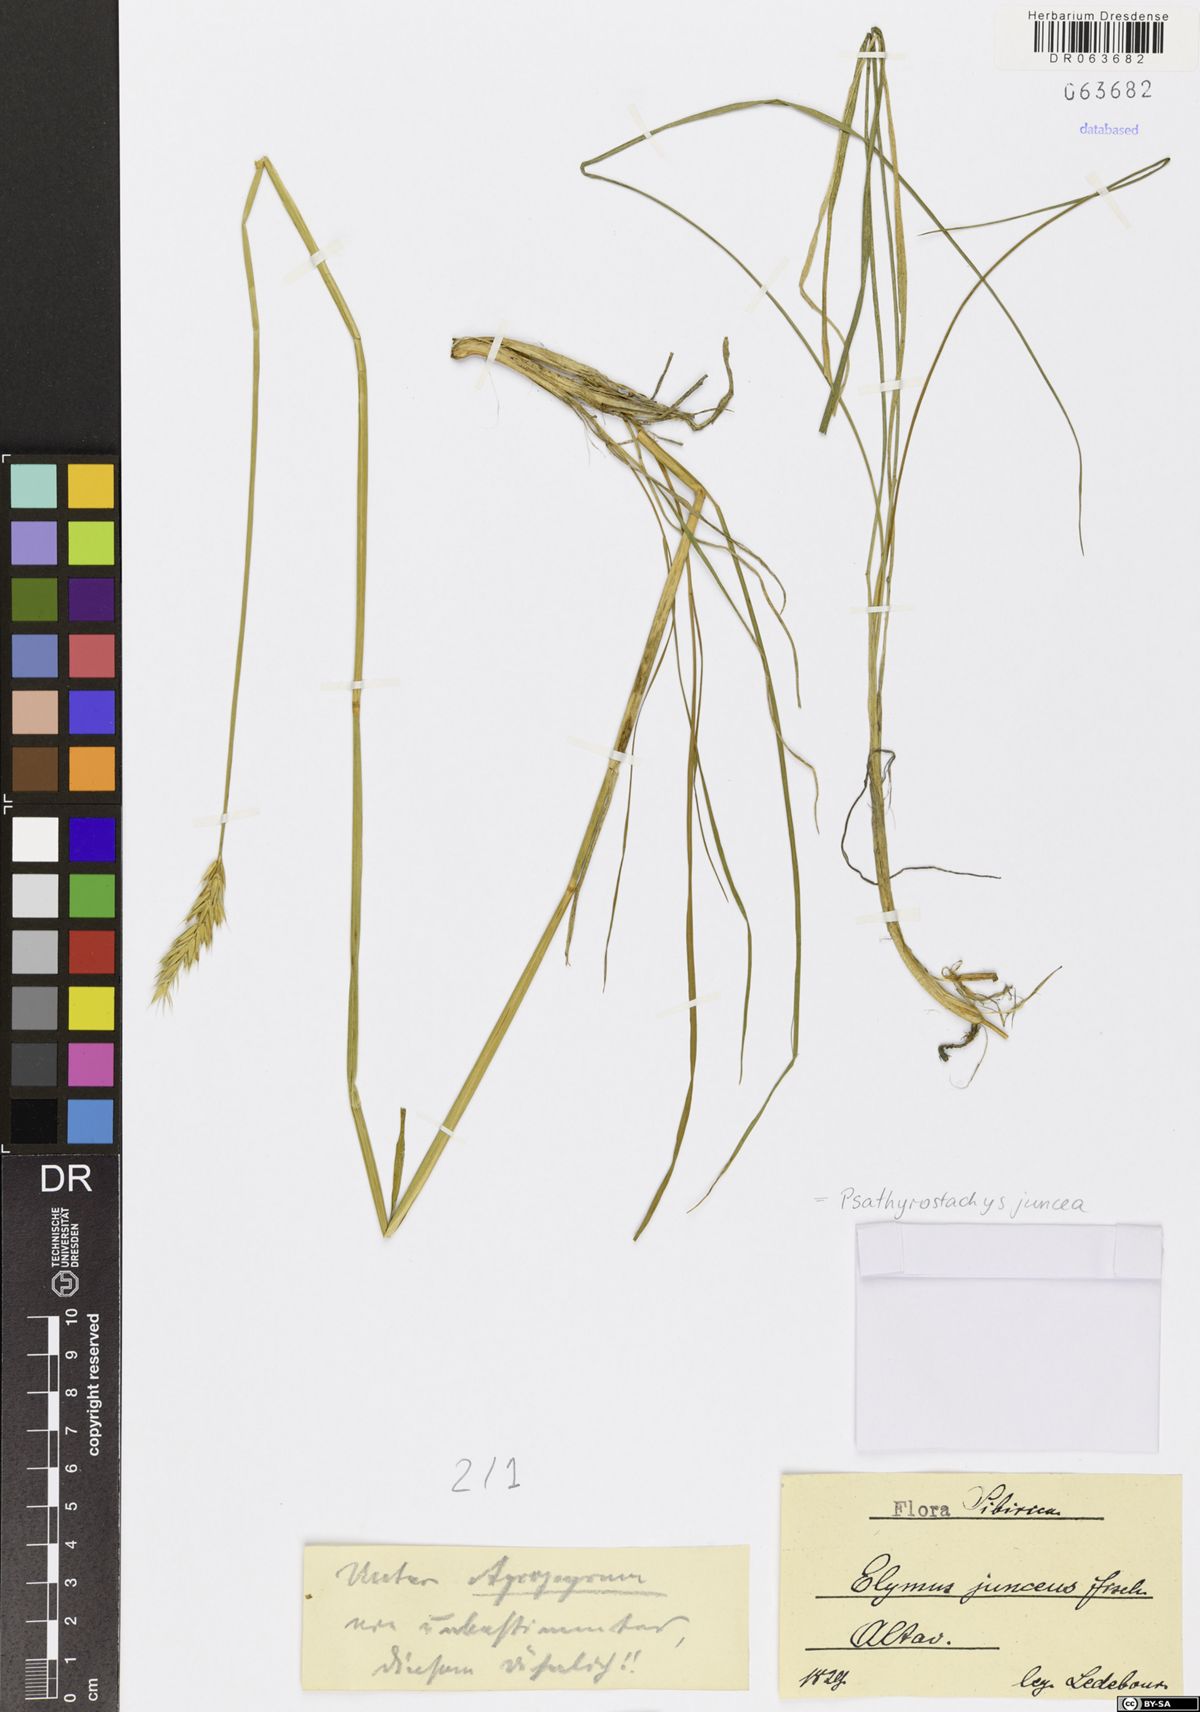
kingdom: Plantae
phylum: Tracheophyta
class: Liliopsida
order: Poales
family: Poaceae
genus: Psathyrostachys
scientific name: Psathyrostachys juncea
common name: Russian wildrye
